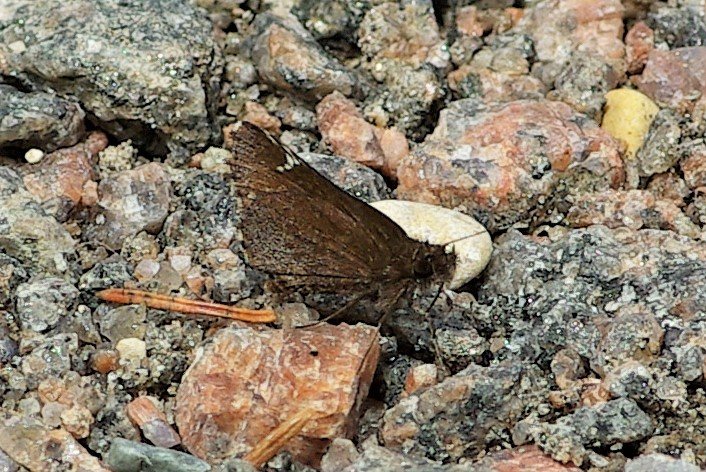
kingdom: Animalia
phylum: Arthropoda
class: Insecta
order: Lepidoptera
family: Hesperiidae
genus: Mastor
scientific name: Mastor vialis
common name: Common Roadside-Skipper
